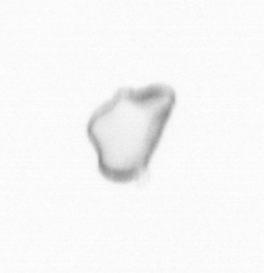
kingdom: Chromista
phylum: Ochrophyta
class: Bacillariophyceae
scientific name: Bacillariophyceae
